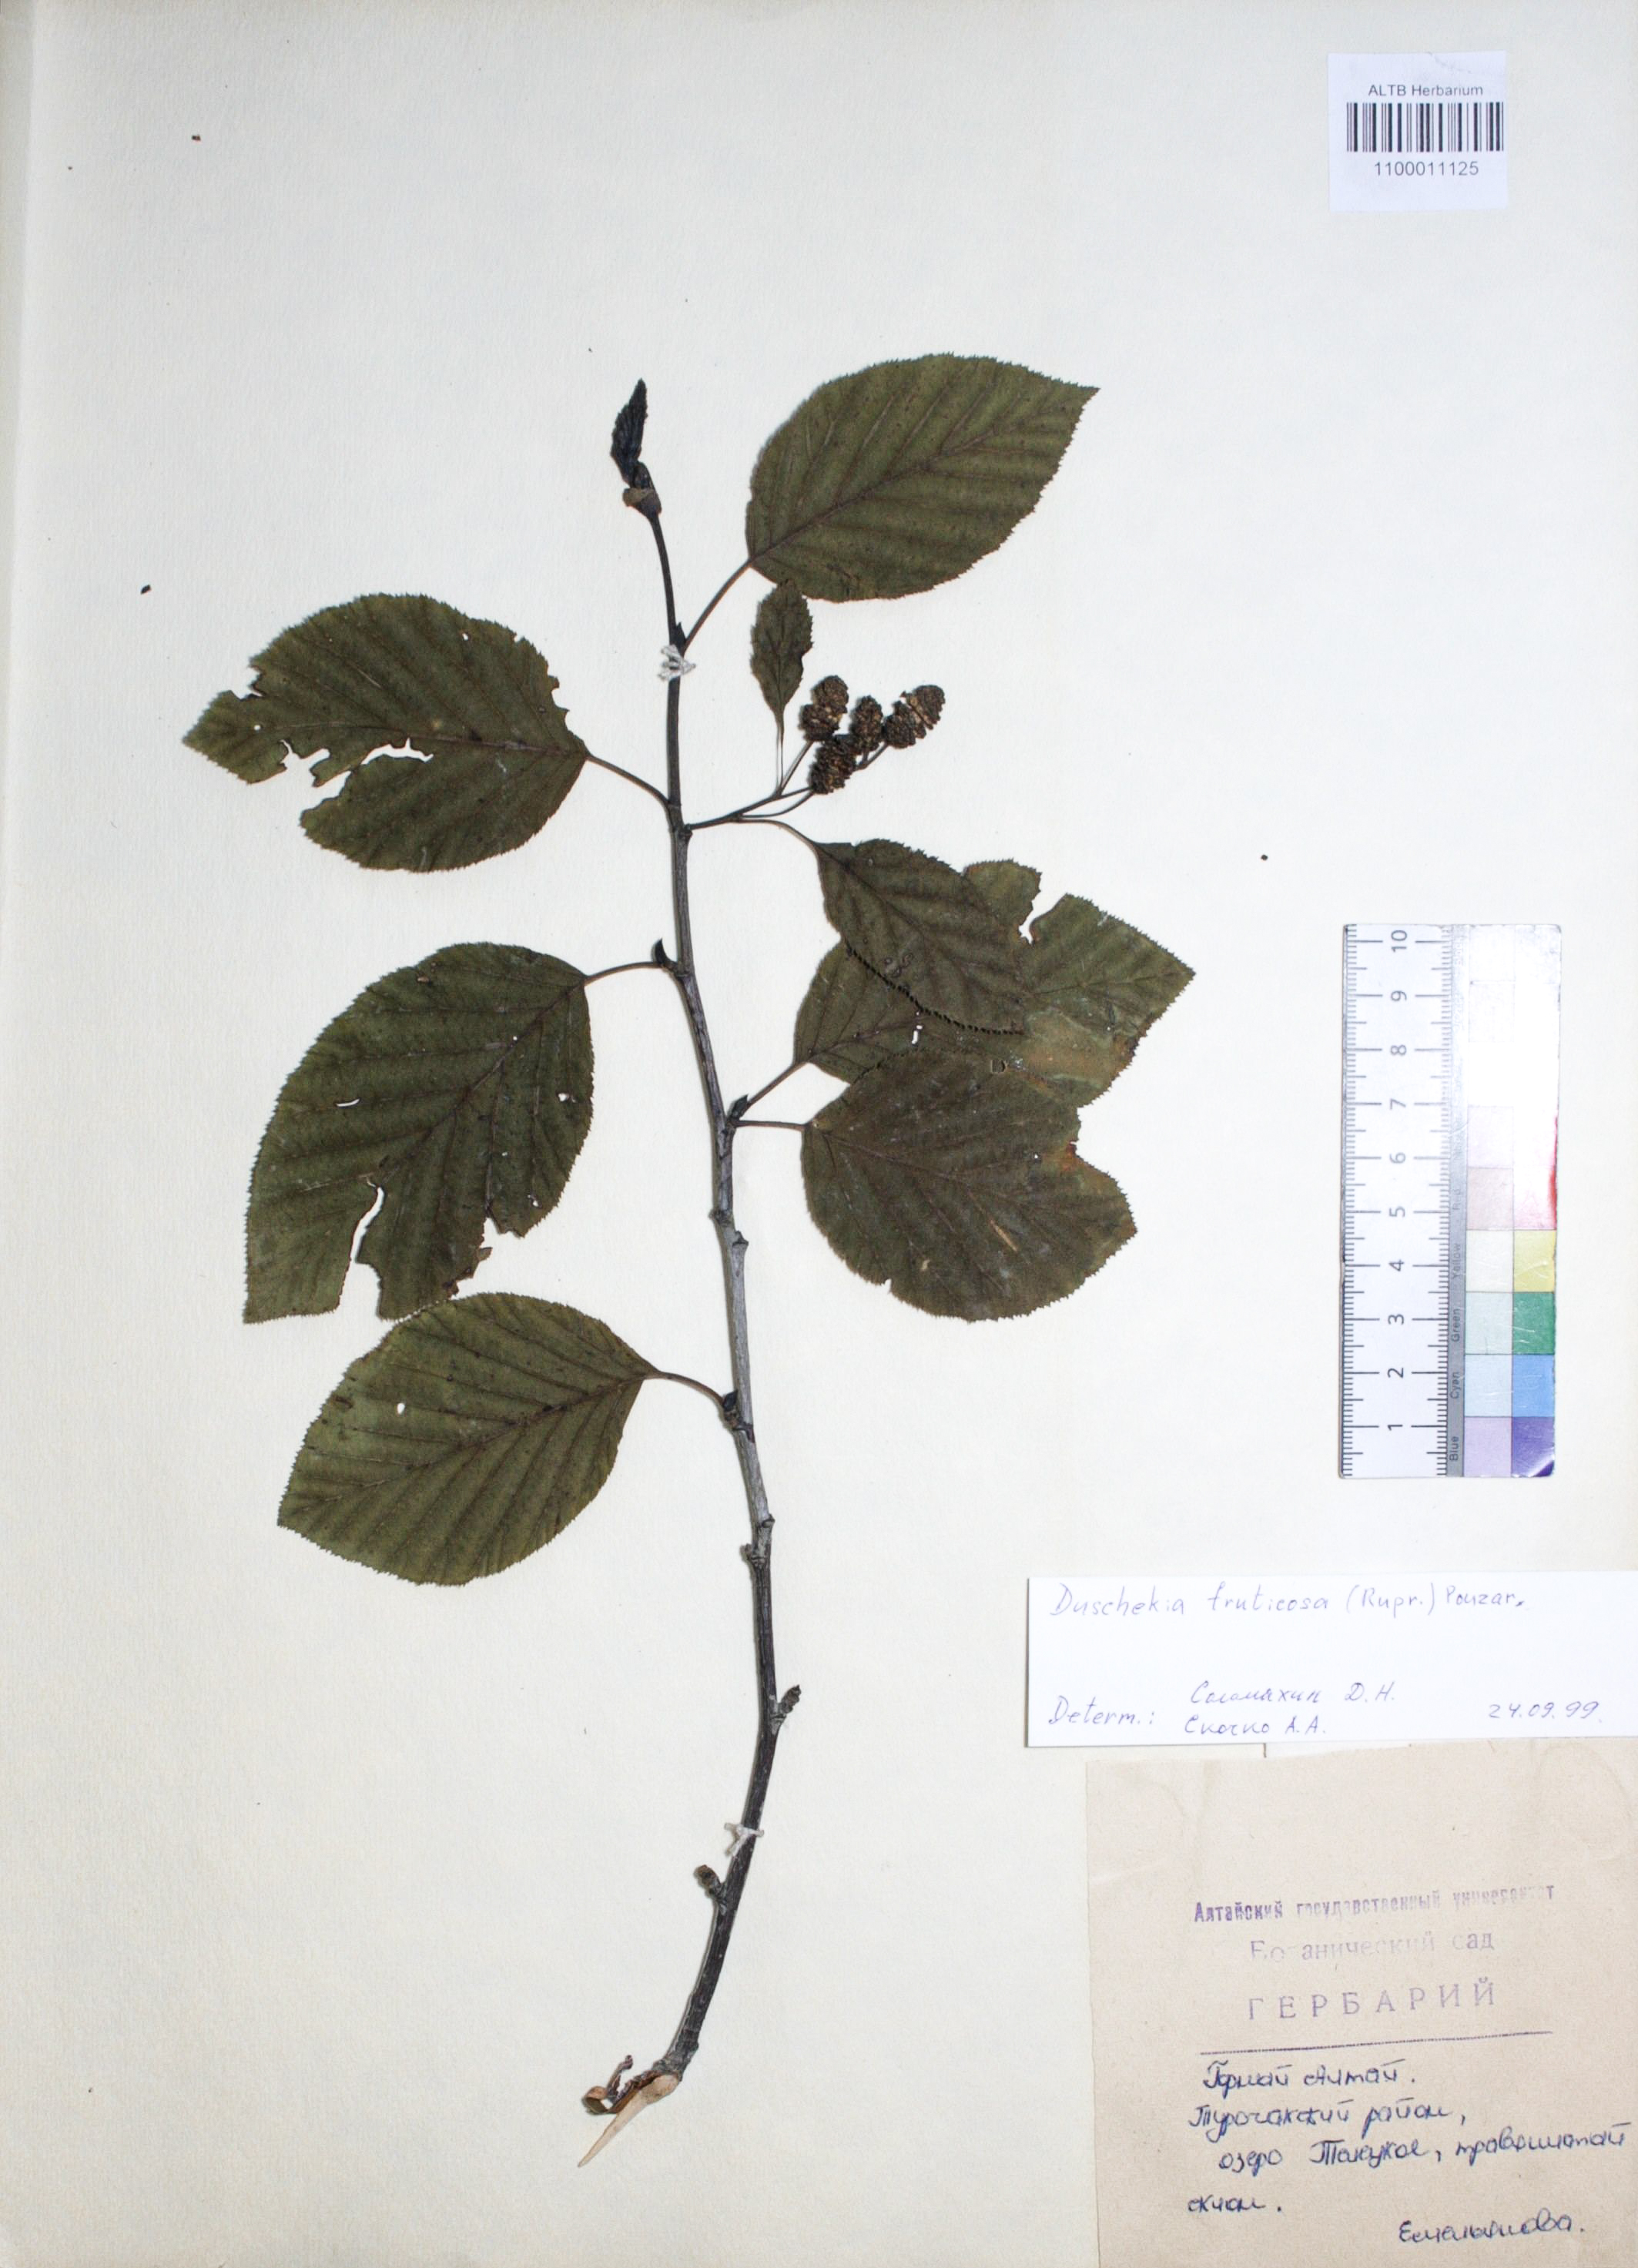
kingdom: Plantae
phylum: Tracheophyta
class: Magnoliopsida
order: Fagales
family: Betulaceae
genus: Alnus
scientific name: Alnus alnobetula
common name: Green alder
